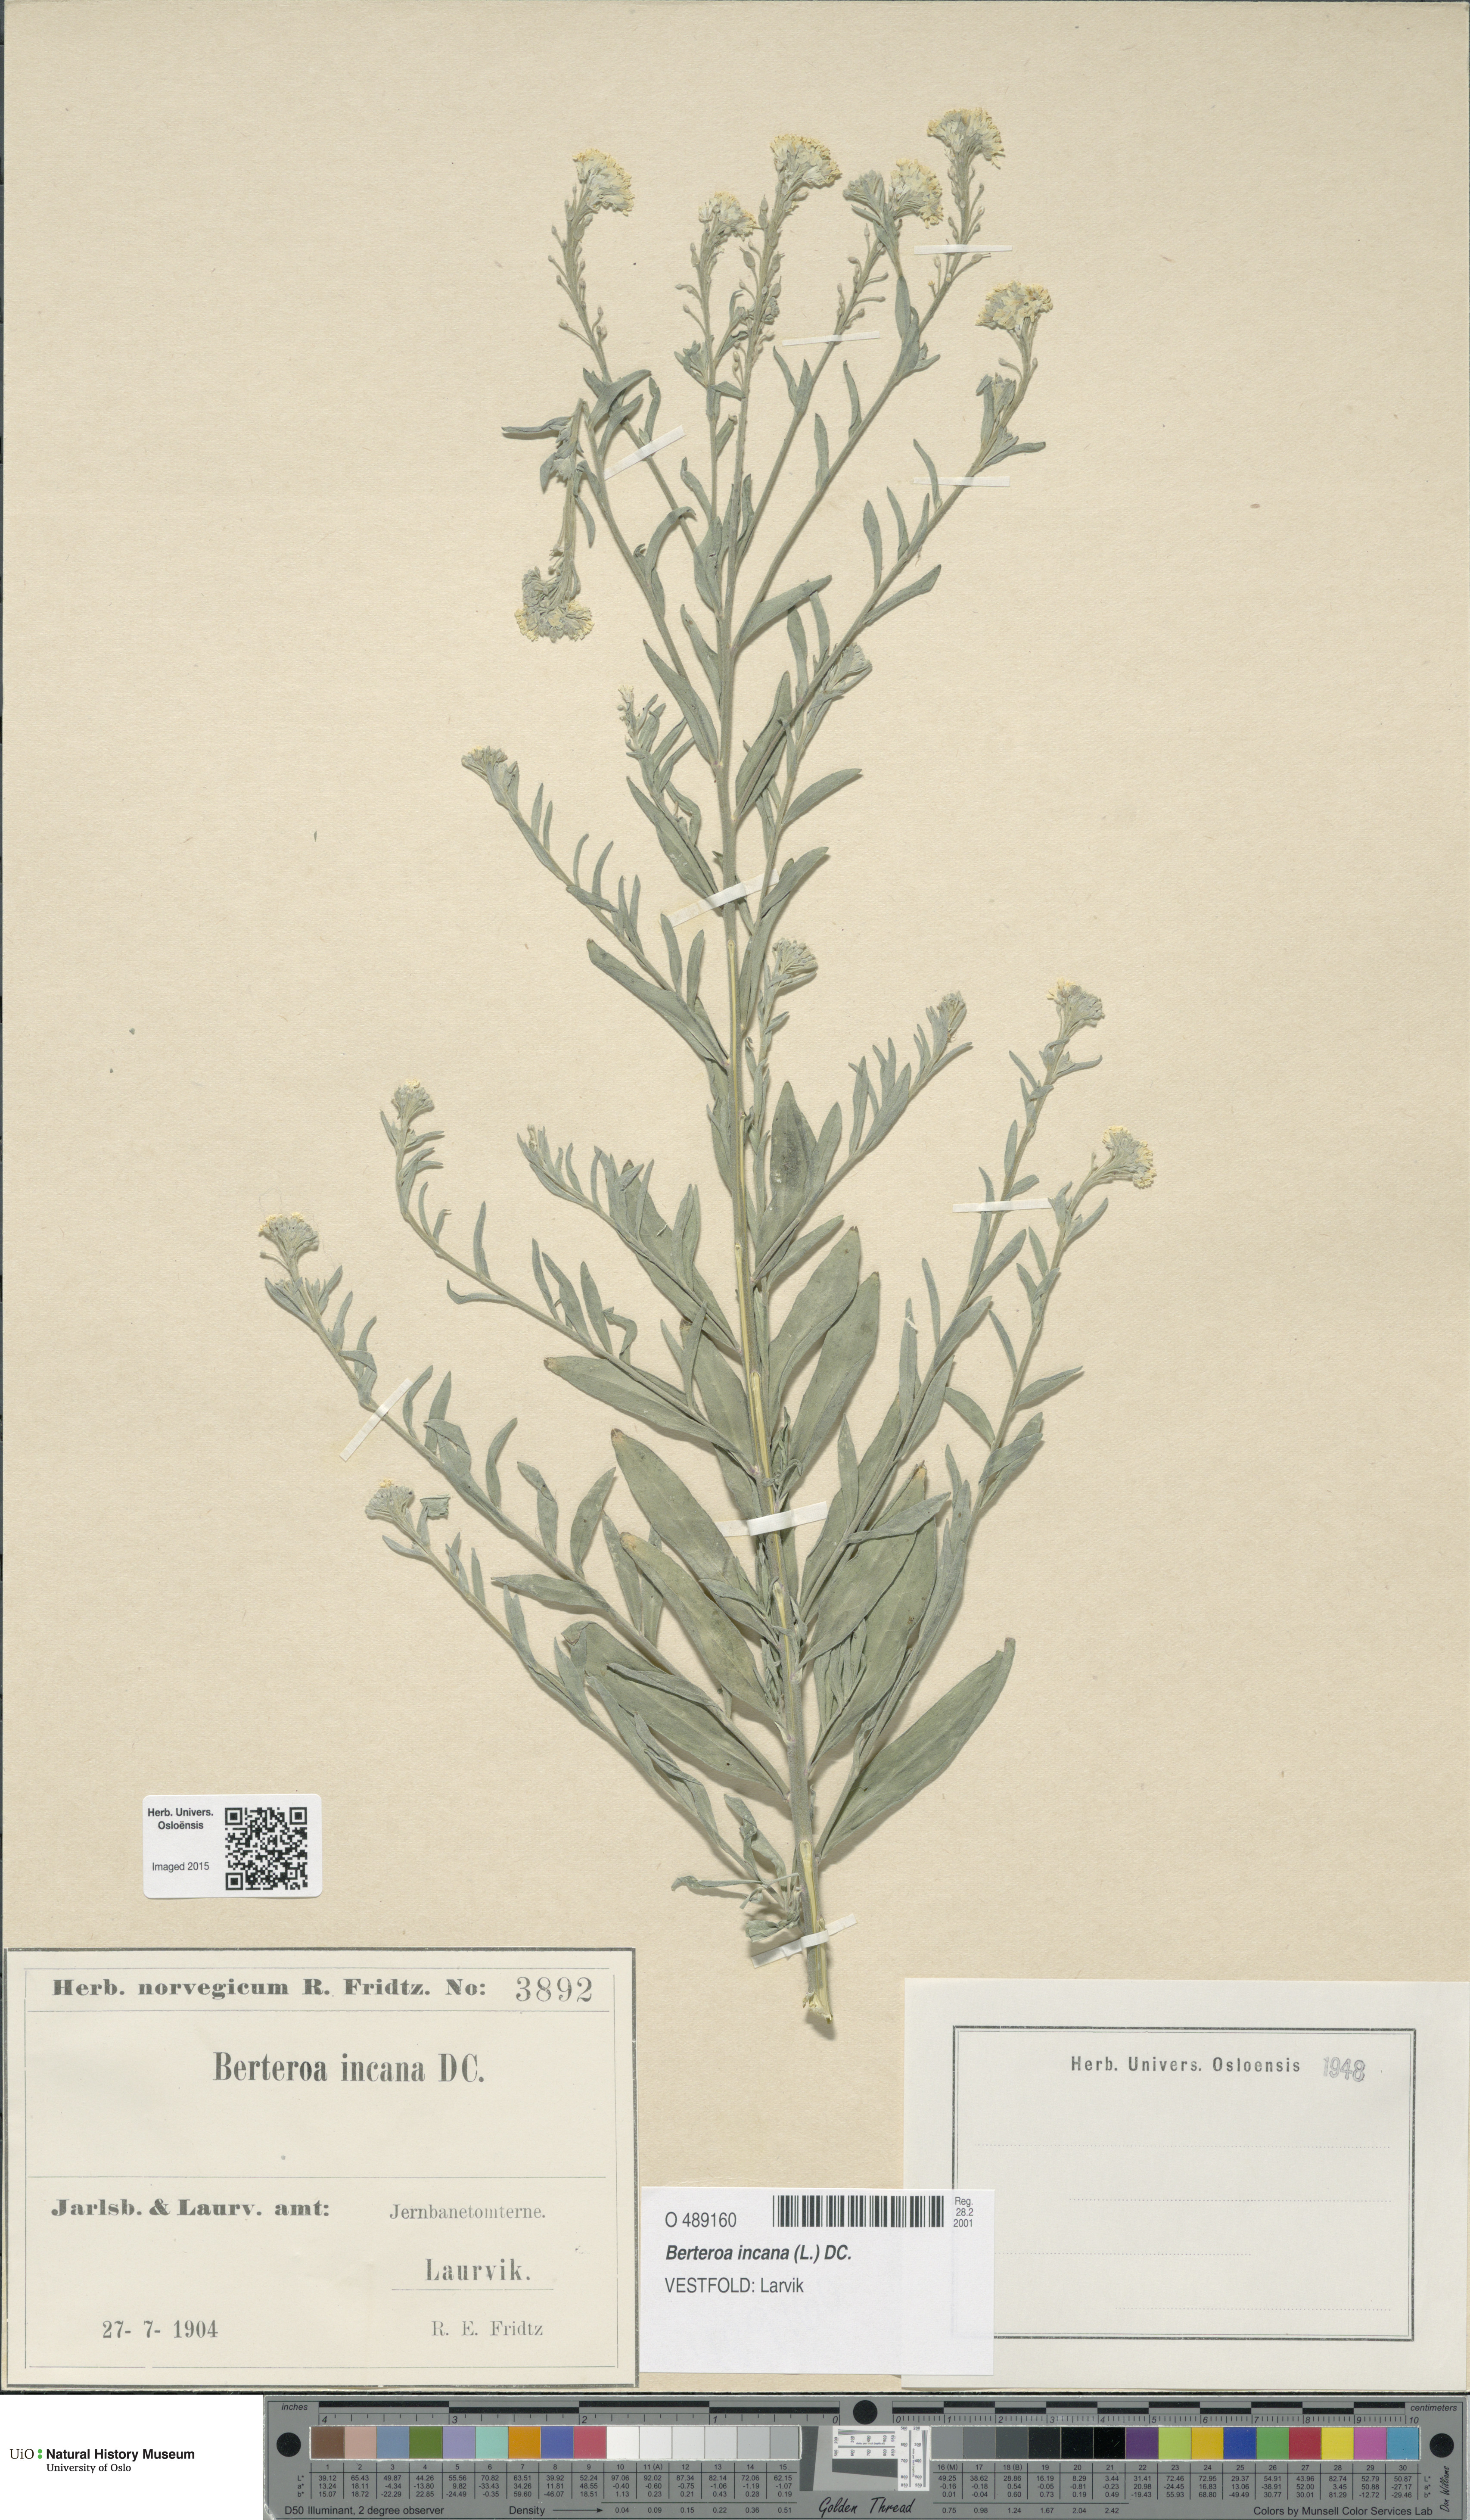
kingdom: Plantae
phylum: Tracheophyta
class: Magnoliopsida
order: Brassicales
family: Brassicaceae
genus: Berteroa
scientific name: Berteroa incana
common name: Hoary alison
